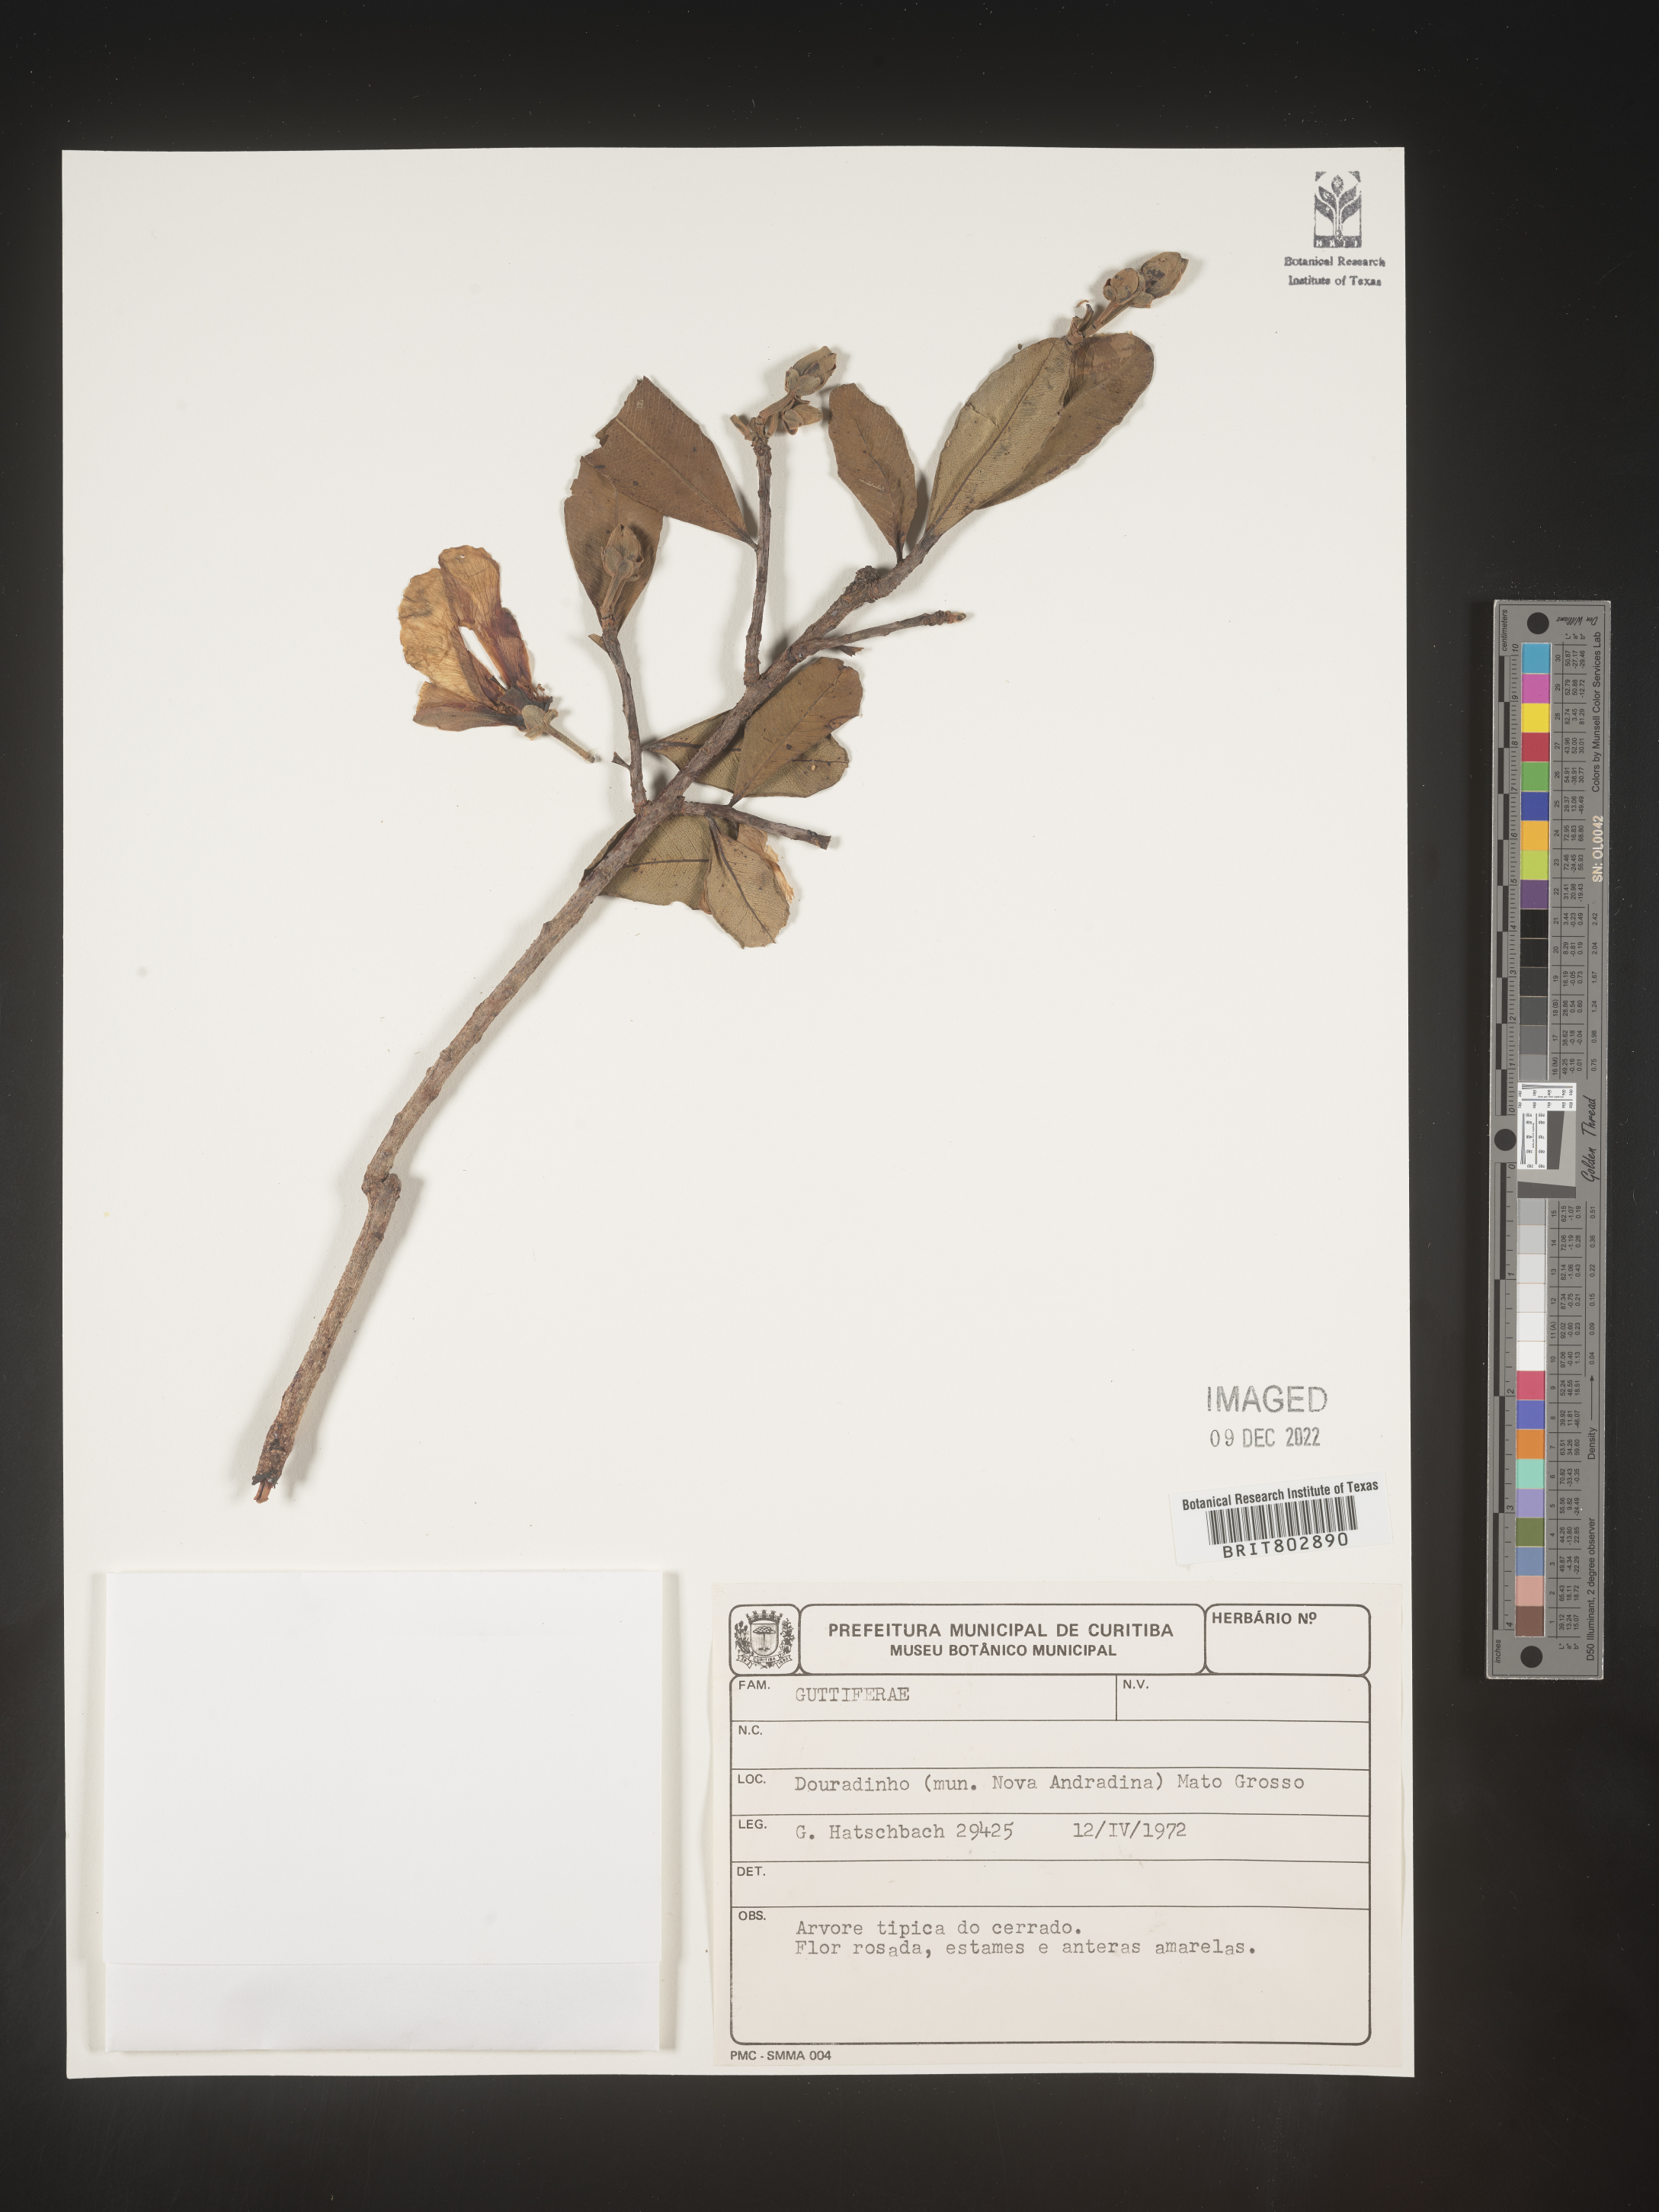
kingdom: Plantae
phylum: Tracheophyta
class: Magnoliopsida
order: Malpighiales
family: Calophyllaceae
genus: Kielmeyera
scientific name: Kielmeyera
